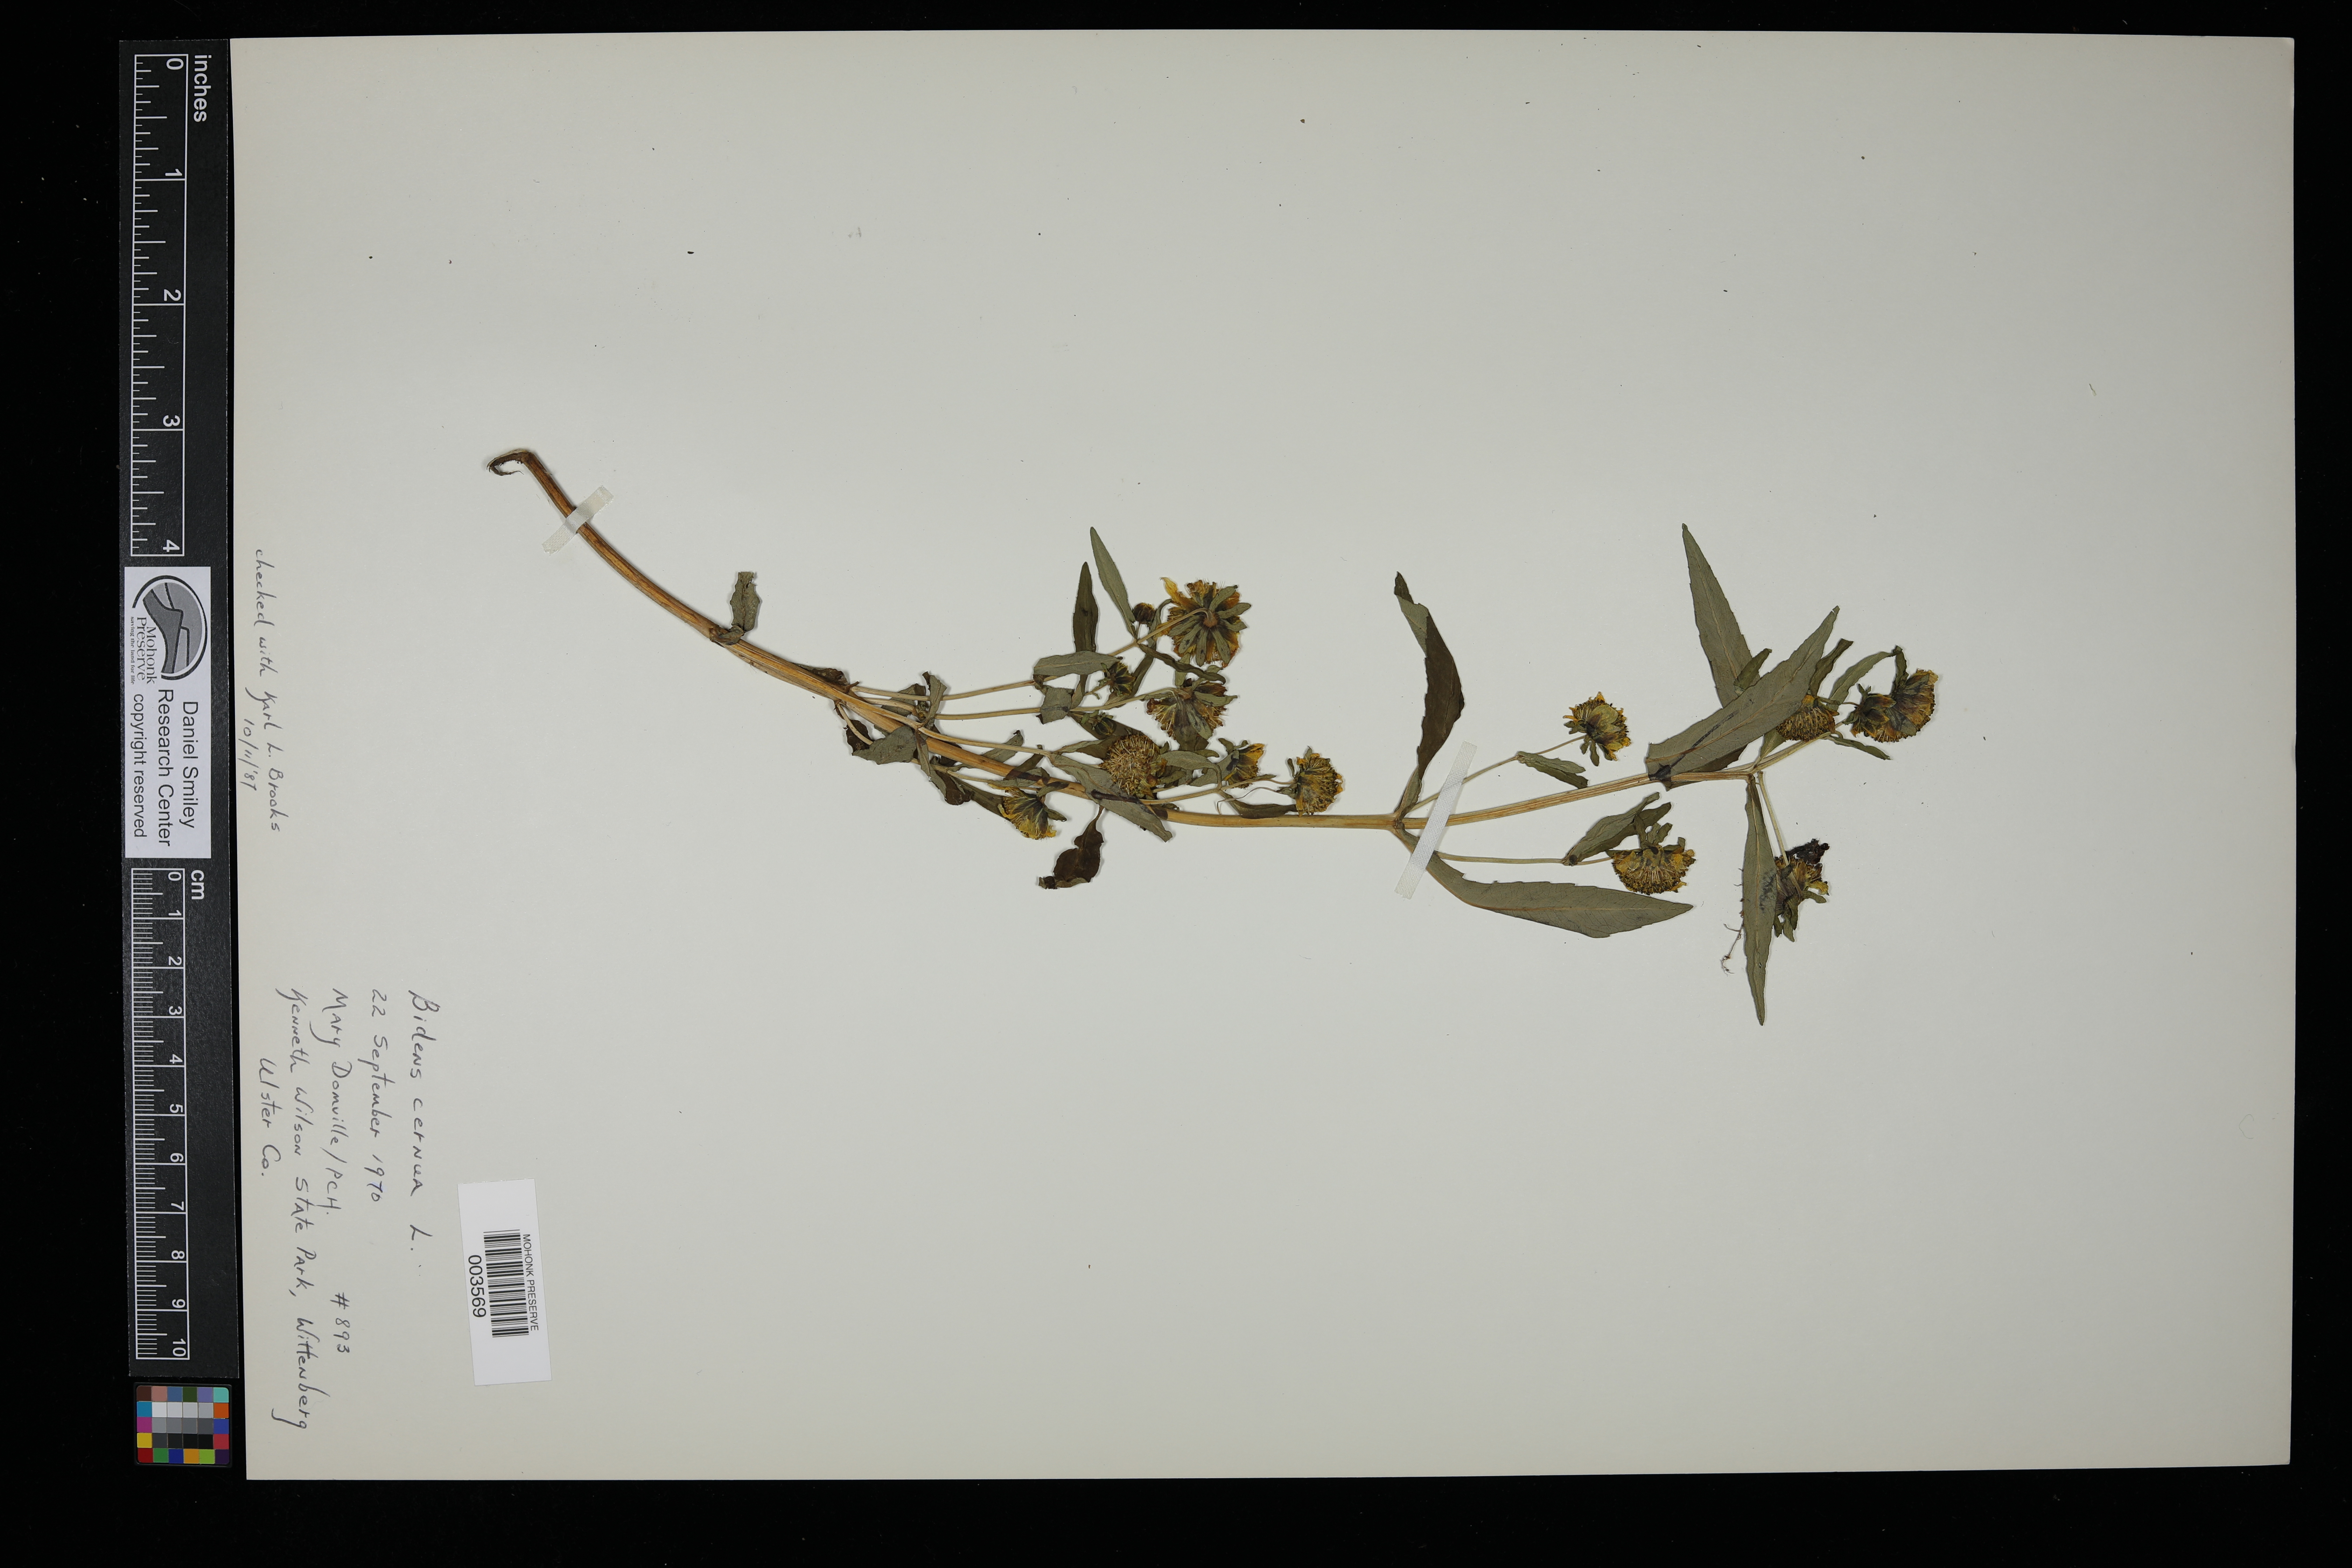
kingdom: Plantae
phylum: Tracheophyta
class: Magnoliopsida
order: Asterales
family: Asteraceae
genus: Bidens
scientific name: Bidens cernua
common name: Nodding bur-marigold
